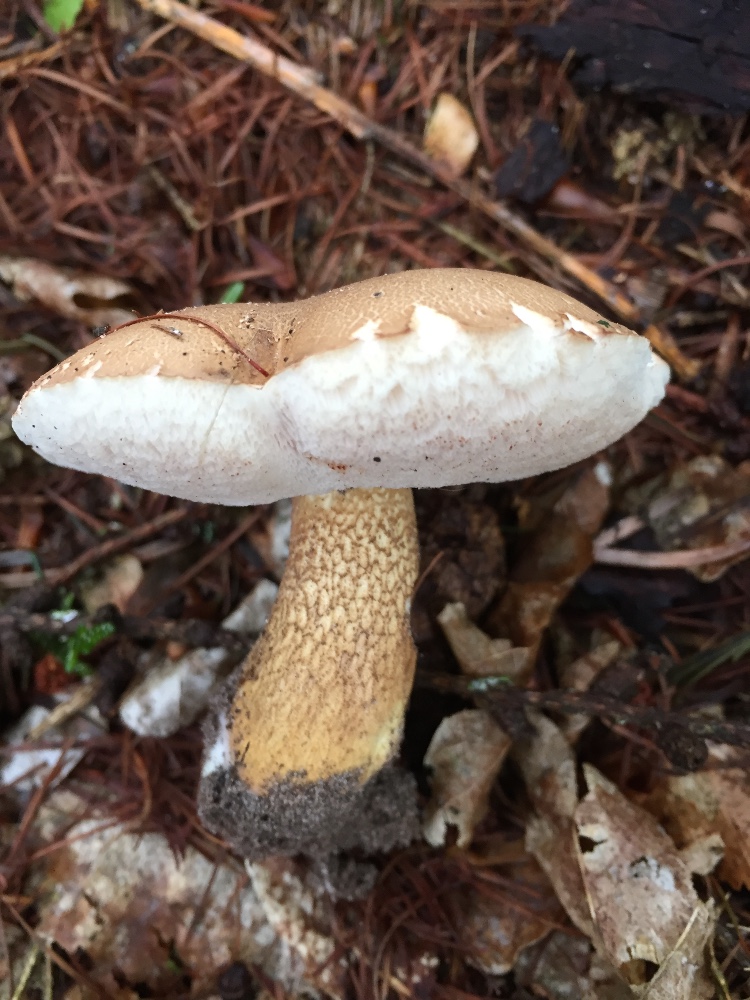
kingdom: Fungi
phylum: Basidiomycota
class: Agaricomycetes
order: Boletales
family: Boletaceae
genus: Tylopilus
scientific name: Tylopilus felleus
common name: galderørhat
